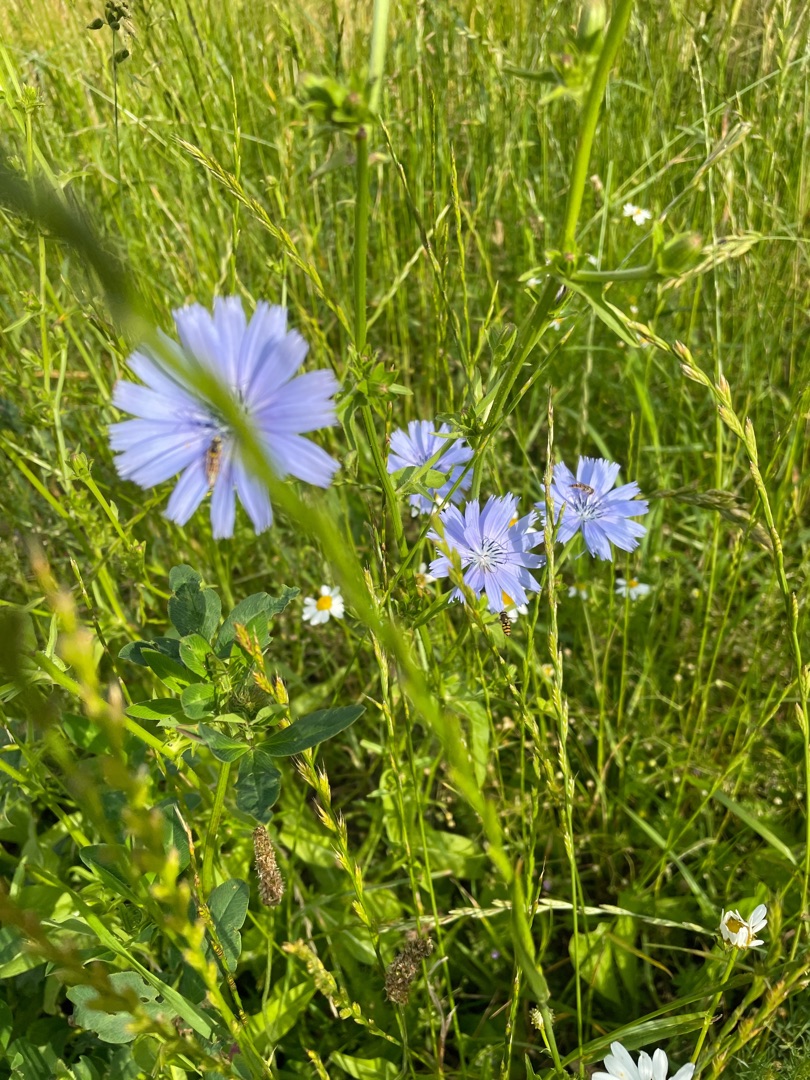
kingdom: Plantae
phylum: Tracheophyta
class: Magnoliopsida
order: Asterales
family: Asteraceae
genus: Cichorium
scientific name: Cichorium intybus
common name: Cikorie
